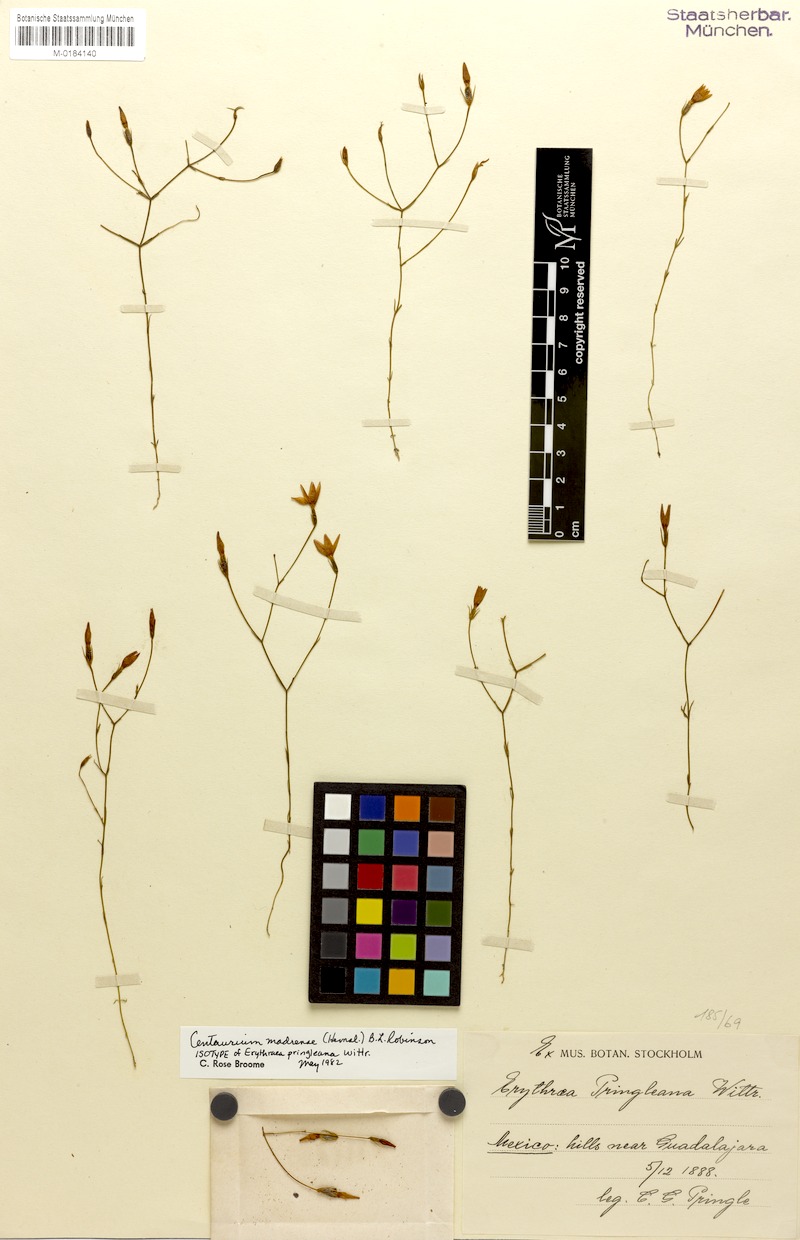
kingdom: Plantae
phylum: Tracheophyta
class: Magnoliopsida
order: Gentianales
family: Gentianaceae
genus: Zeltnera
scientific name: Zeltnera madrensis
